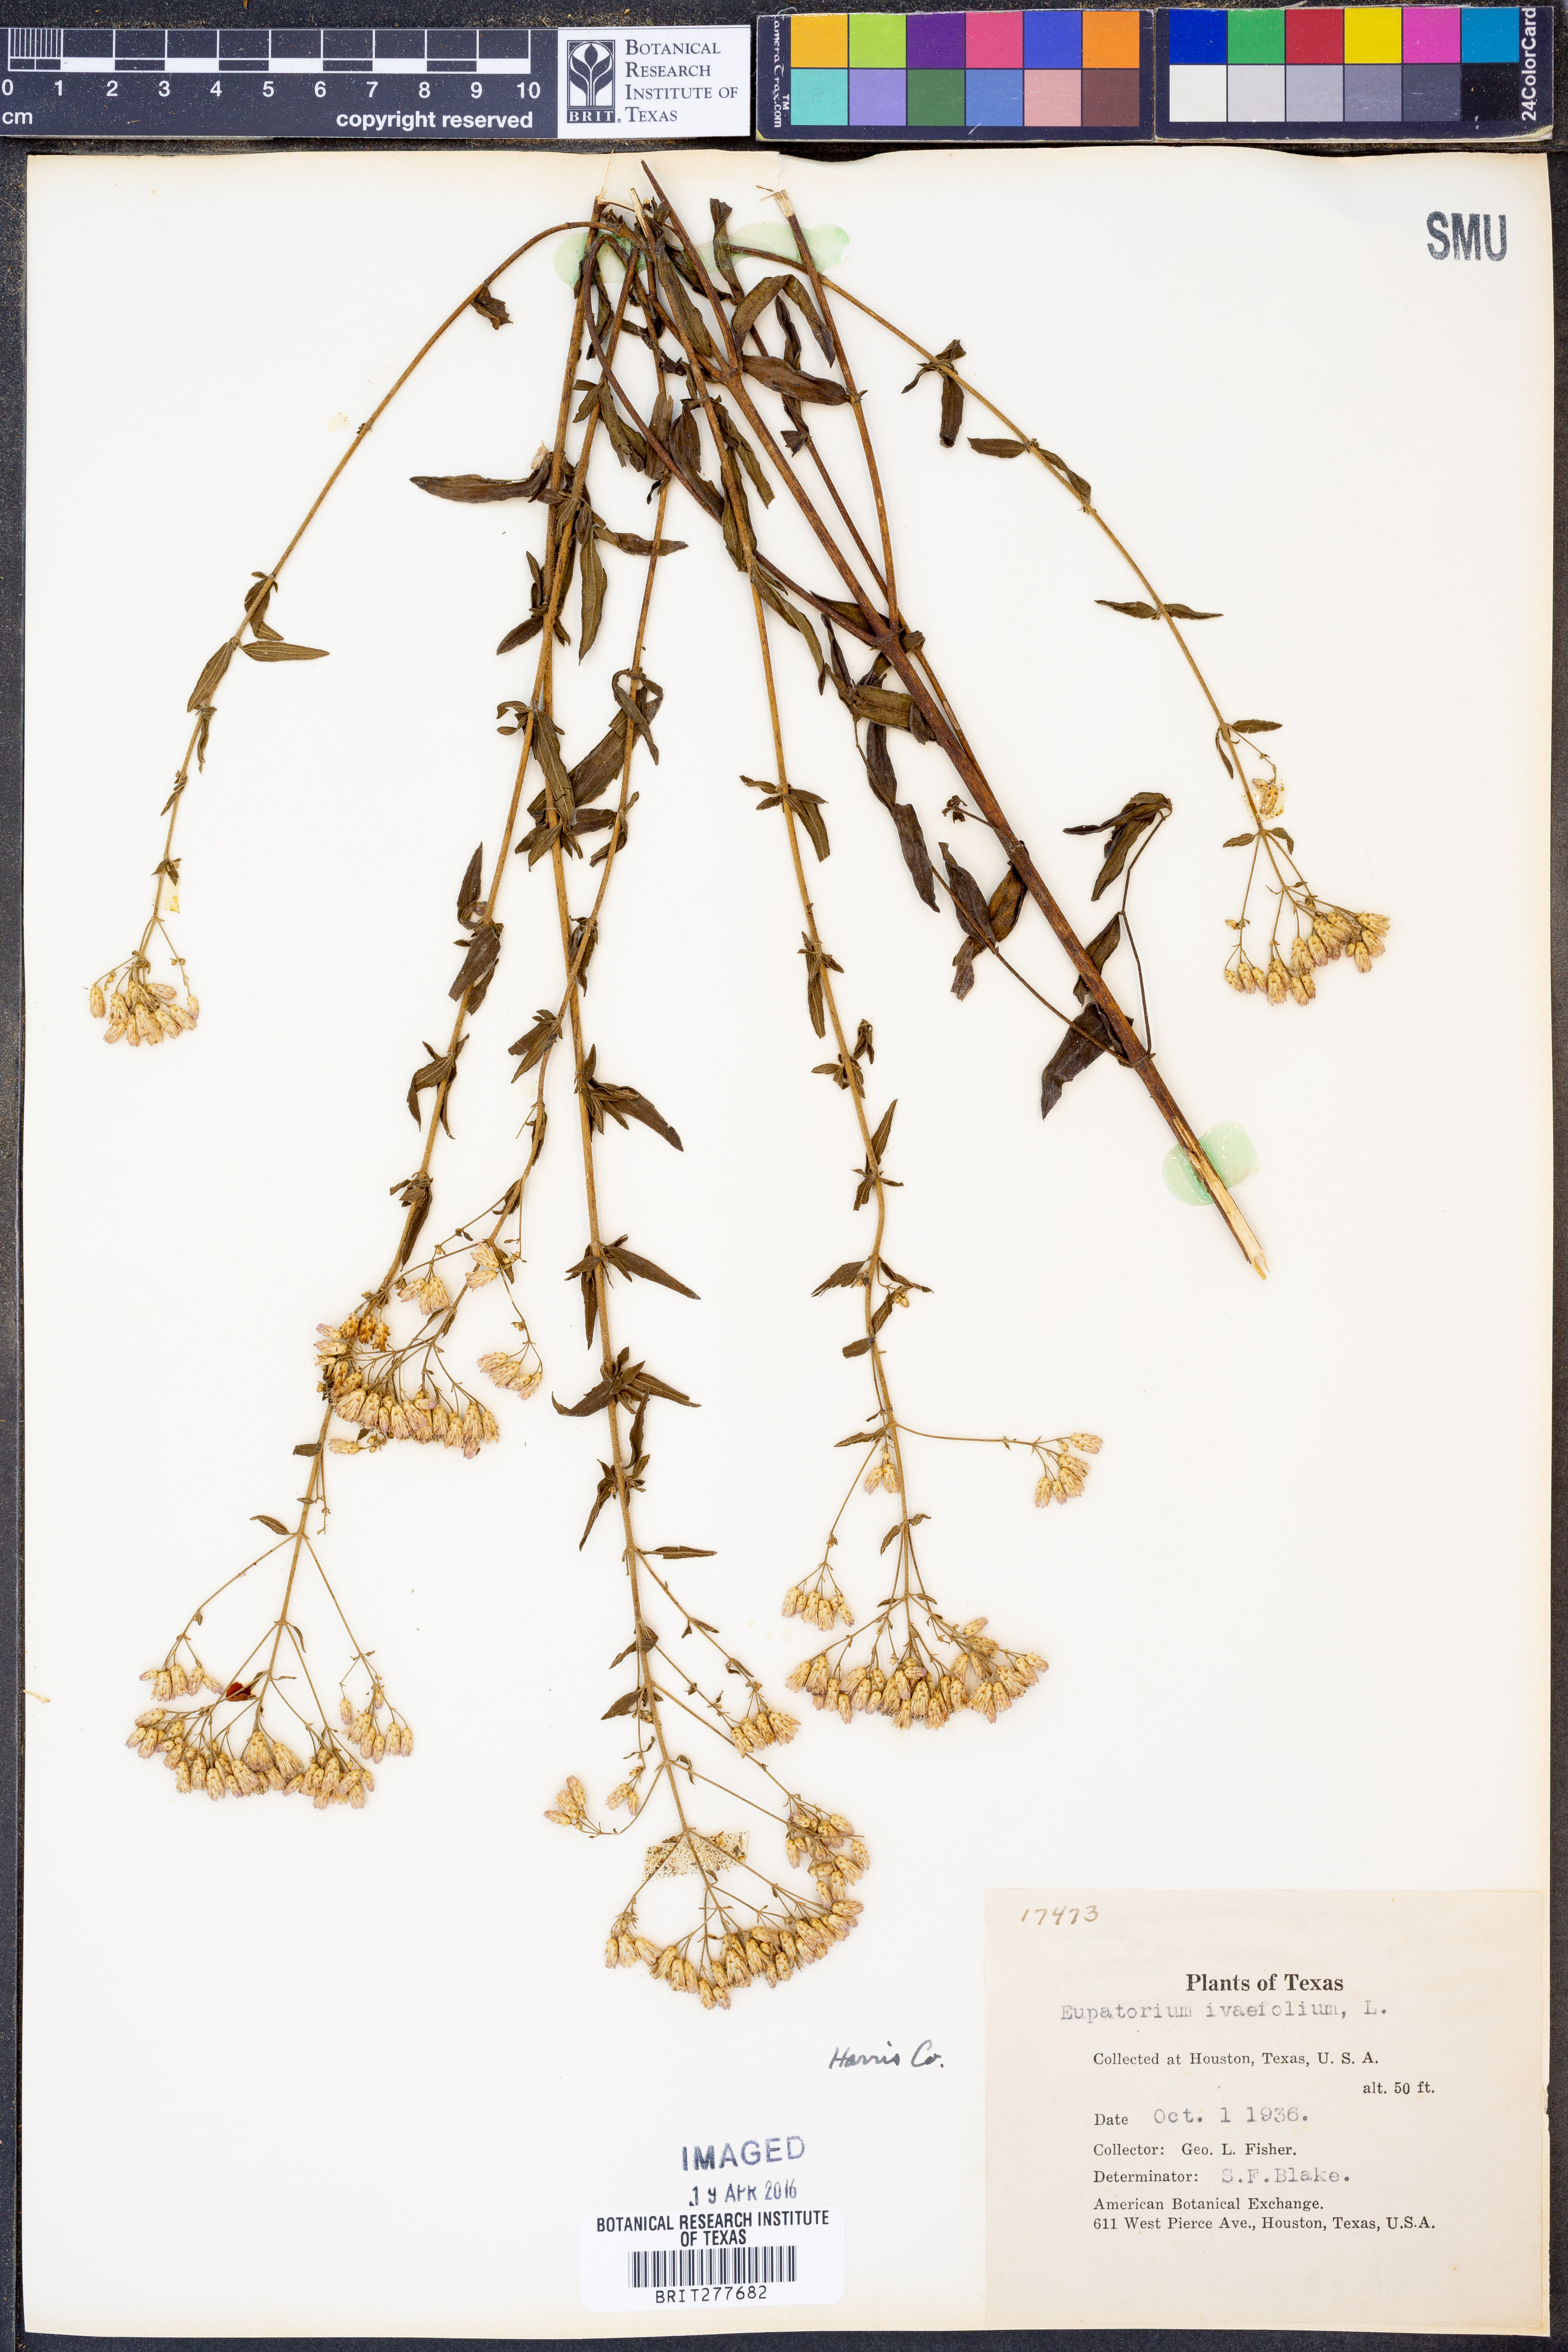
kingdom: Plantae
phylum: Tracheophyta
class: Magnoliopsida
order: Asterales
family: Asteraceae
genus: Chromolaena
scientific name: Chromolaena ivaefolia
